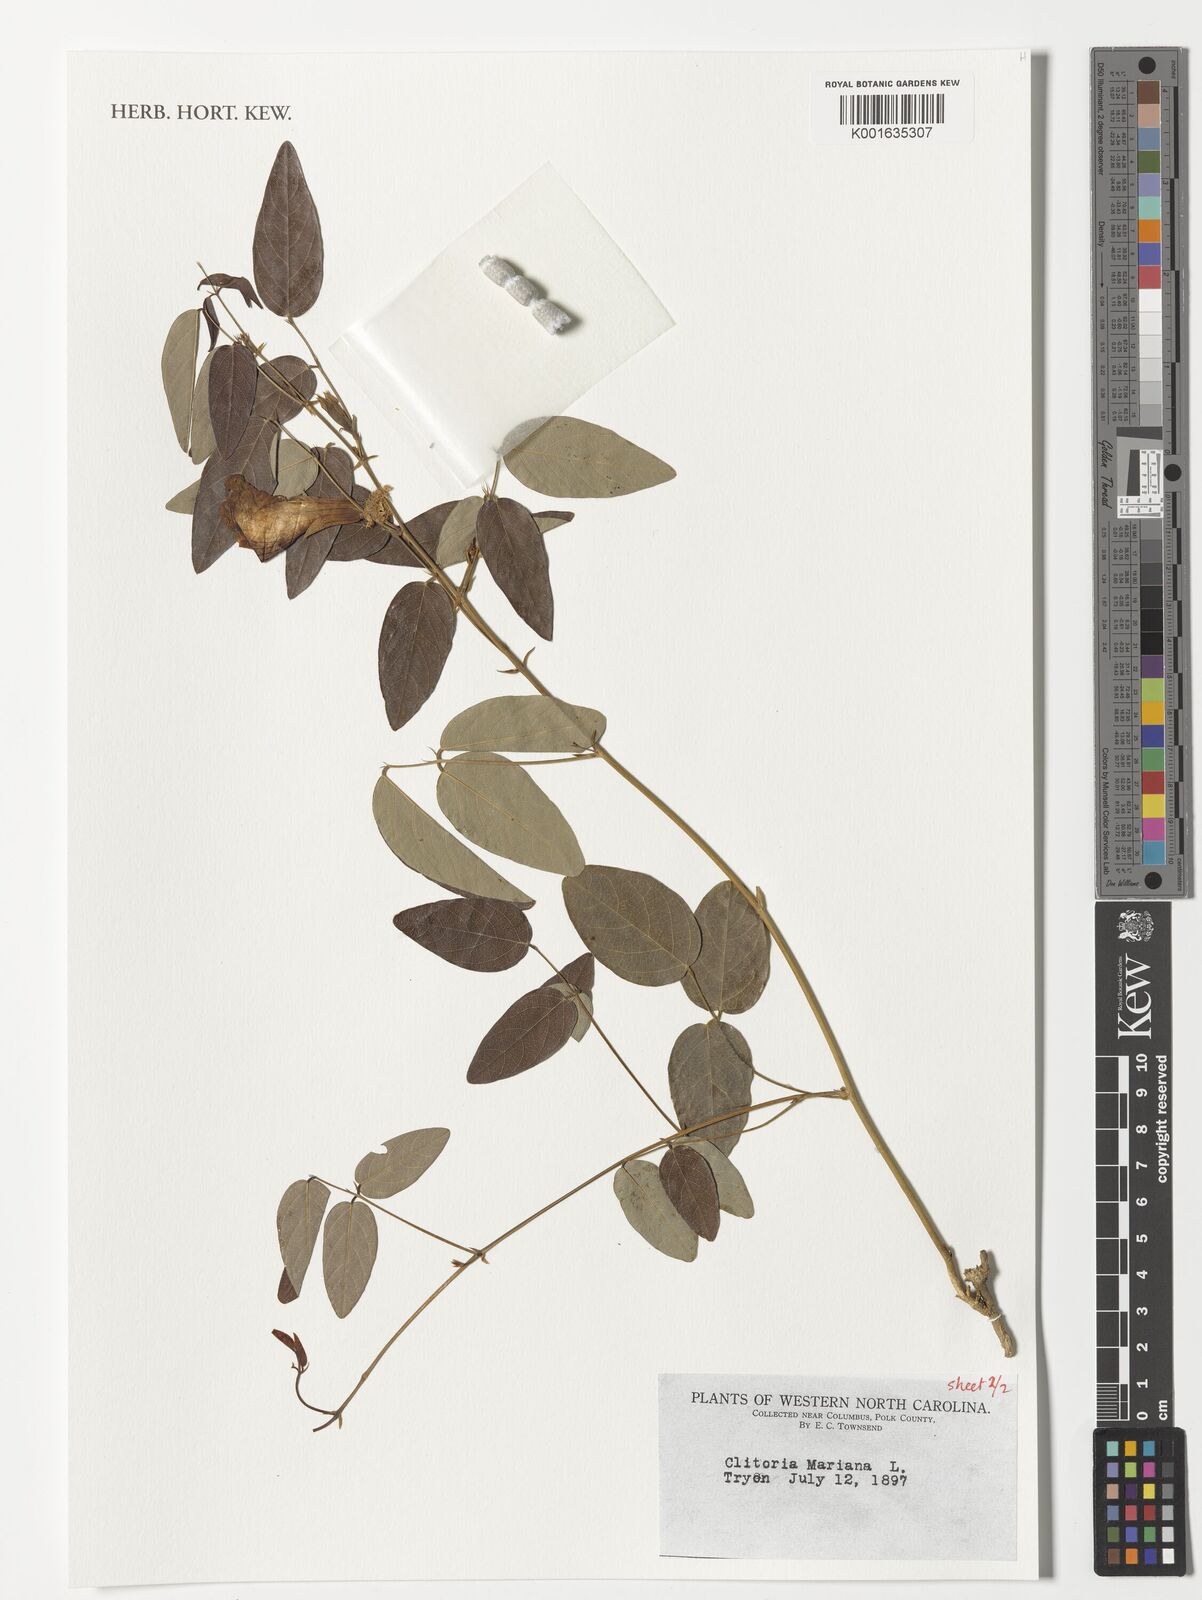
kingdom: Plantae
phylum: Tracheophyta
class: Magnoliopsida
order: Fabales
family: Fabaceae
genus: Clitoria
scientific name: Clitoria mariana
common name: Butterfly-pea
